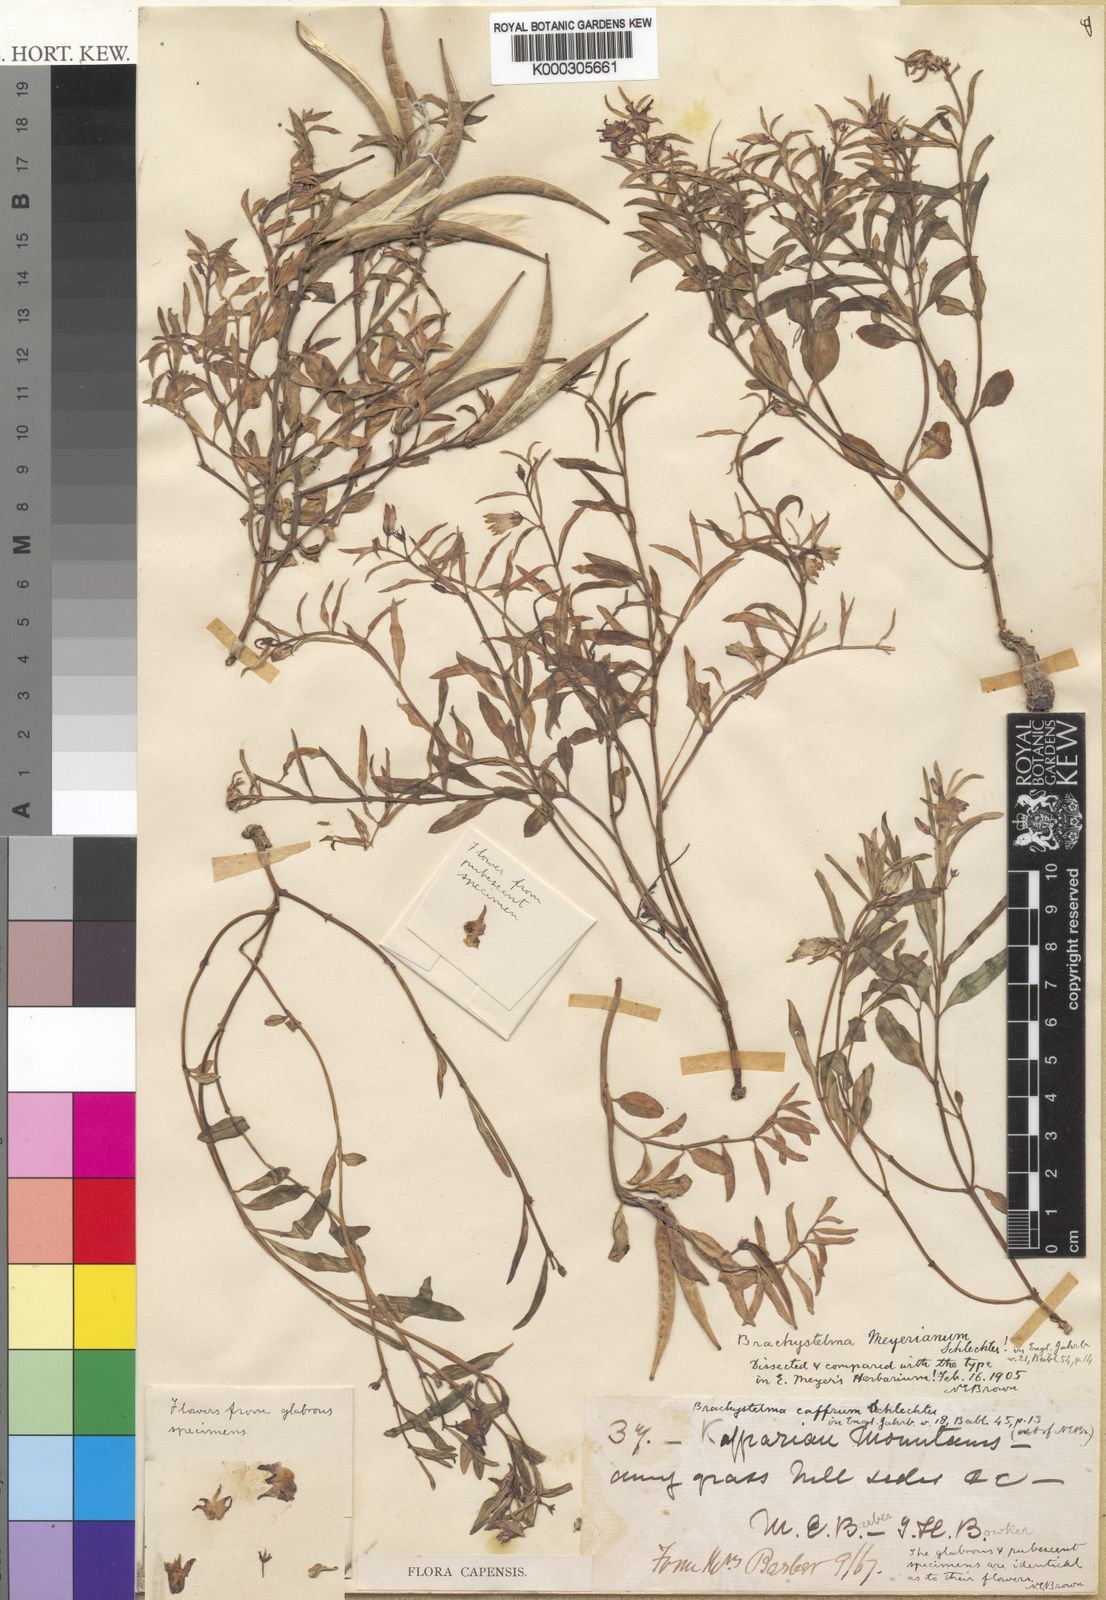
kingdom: Plantae
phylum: Tracheophyta
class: Magnoliopsida
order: Gentianales
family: Apocynaceae
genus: Ceropegia
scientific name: Ceropegia meyeriana
